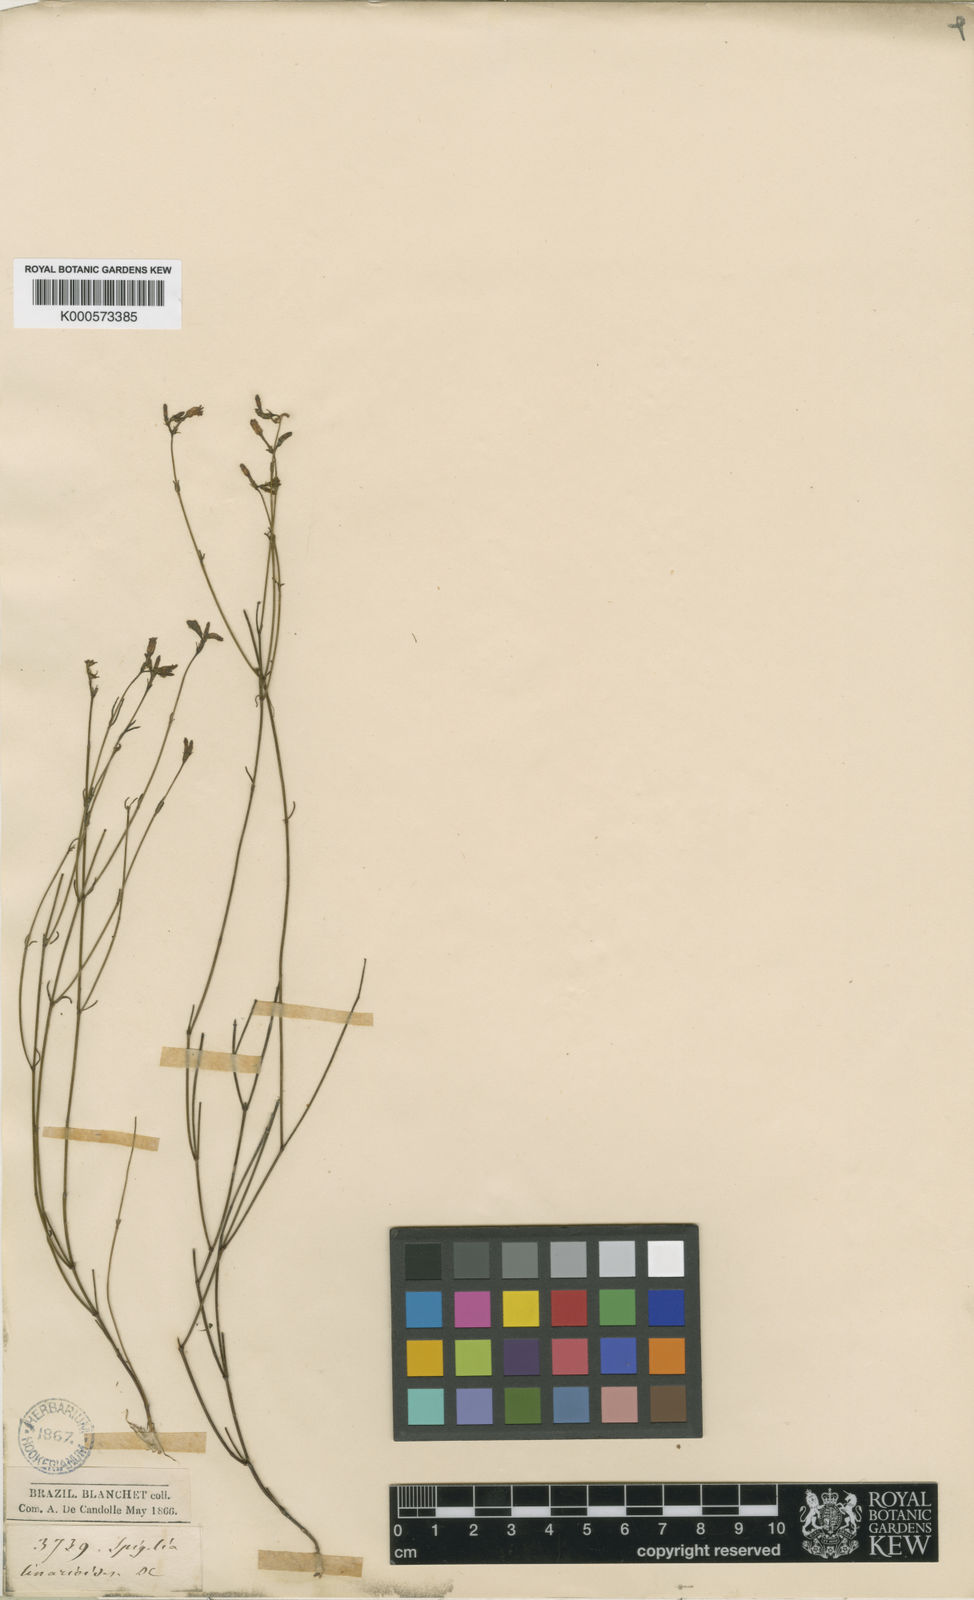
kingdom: Plantae
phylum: Tracheophyta
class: Magnoliopsida
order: Gentianales
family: Loganiaceae
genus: Spigelia
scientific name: Spigelia linarioides
